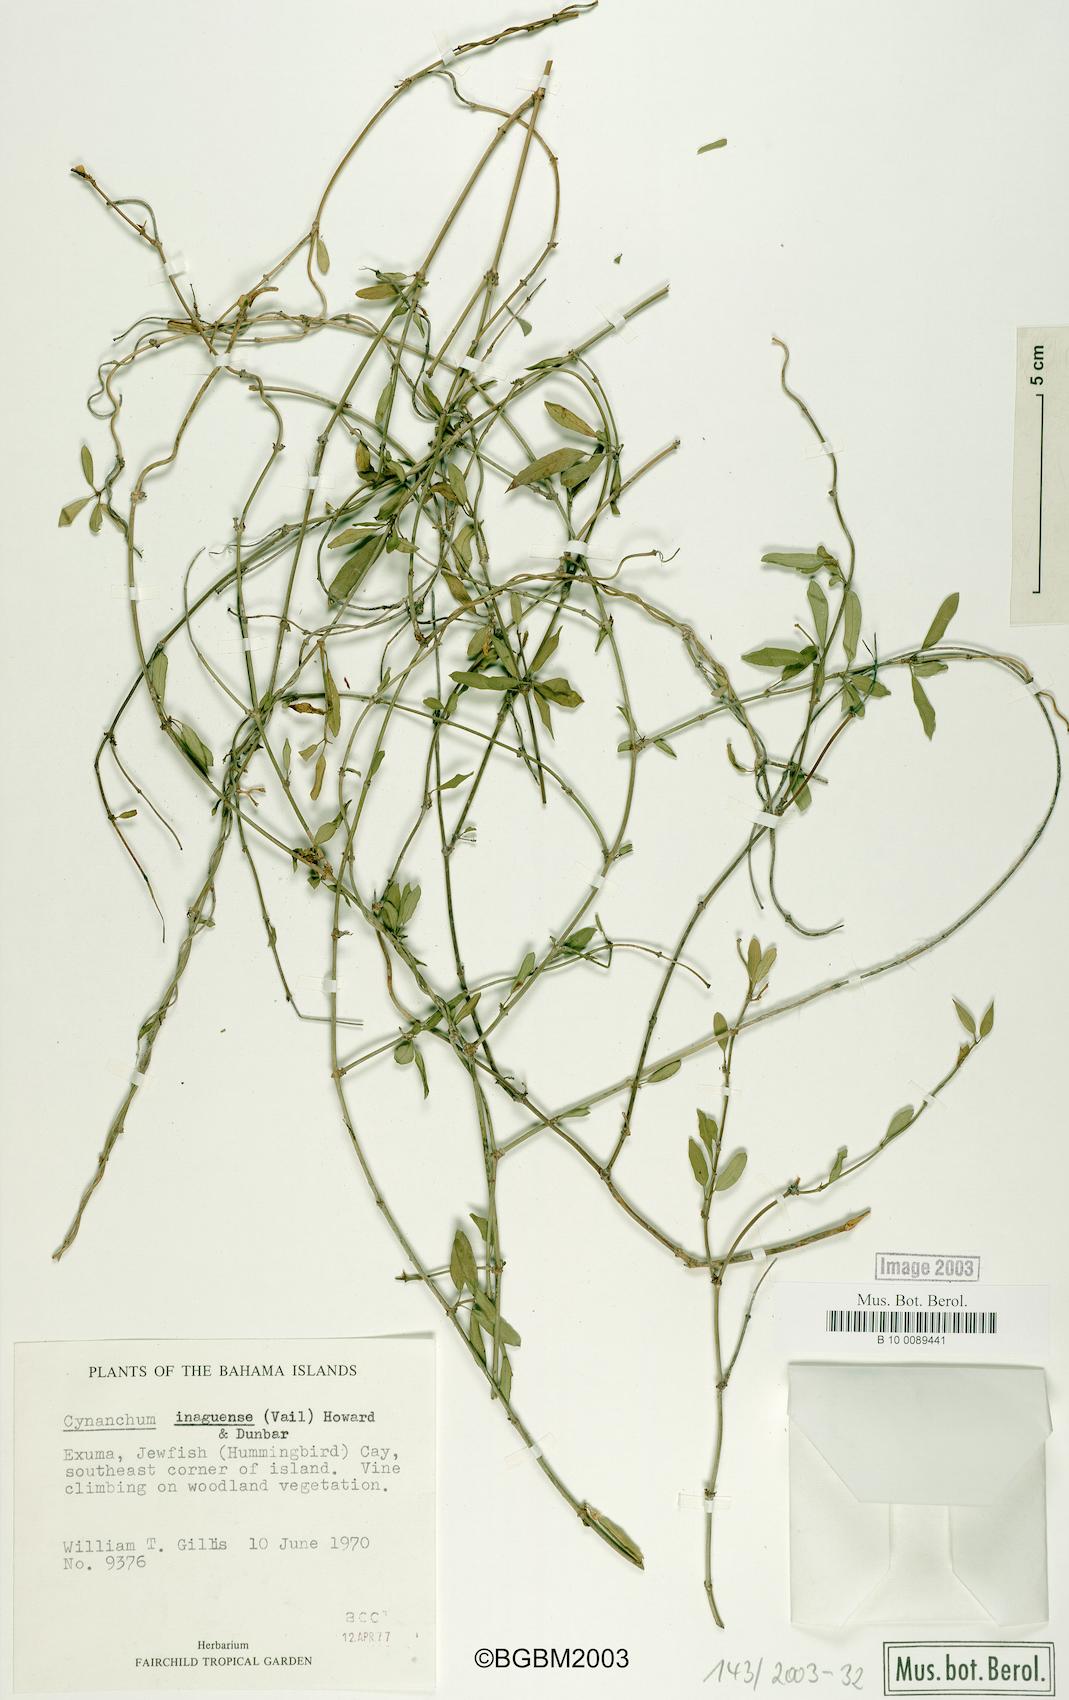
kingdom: Plantae
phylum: Tracheophyta
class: Magnoliopsida
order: Gentianales
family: Apocynaceae
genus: Metastelma
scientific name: Metastelma inaguense
